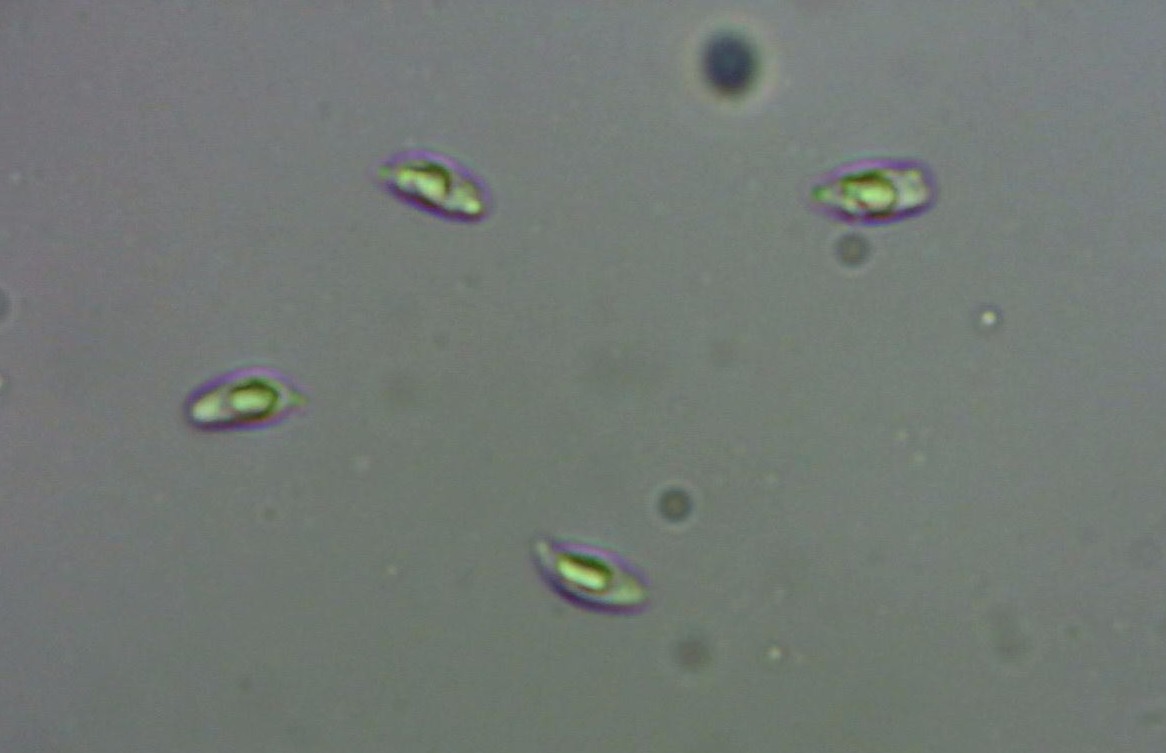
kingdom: Fungi
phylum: Basidiomycota
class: Agaricomycetes
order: Agaricales
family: Omphalotaceae
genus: Collybiopsis
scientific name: Collybiopsis ramealis
